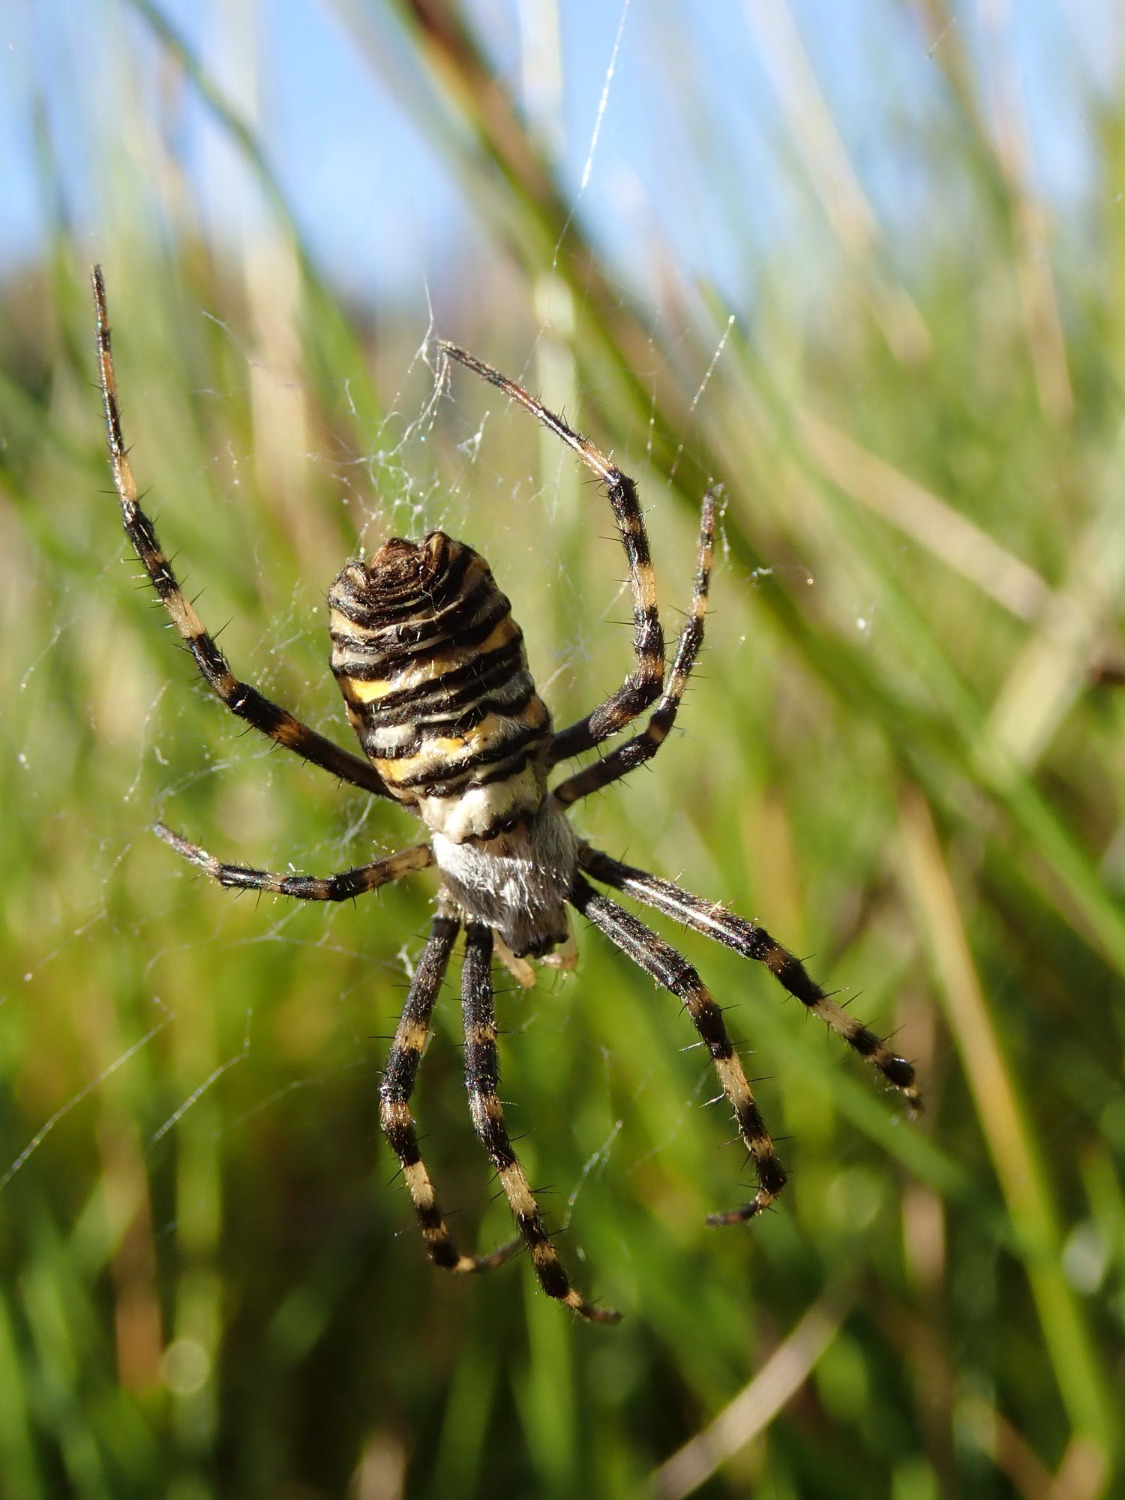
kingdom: Animalia
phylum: Arthropoda
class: Arachnida
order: Araneae
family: Araneidae
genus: Argiope
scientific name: Argiope bruennichi
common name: Hvepseedderkop
